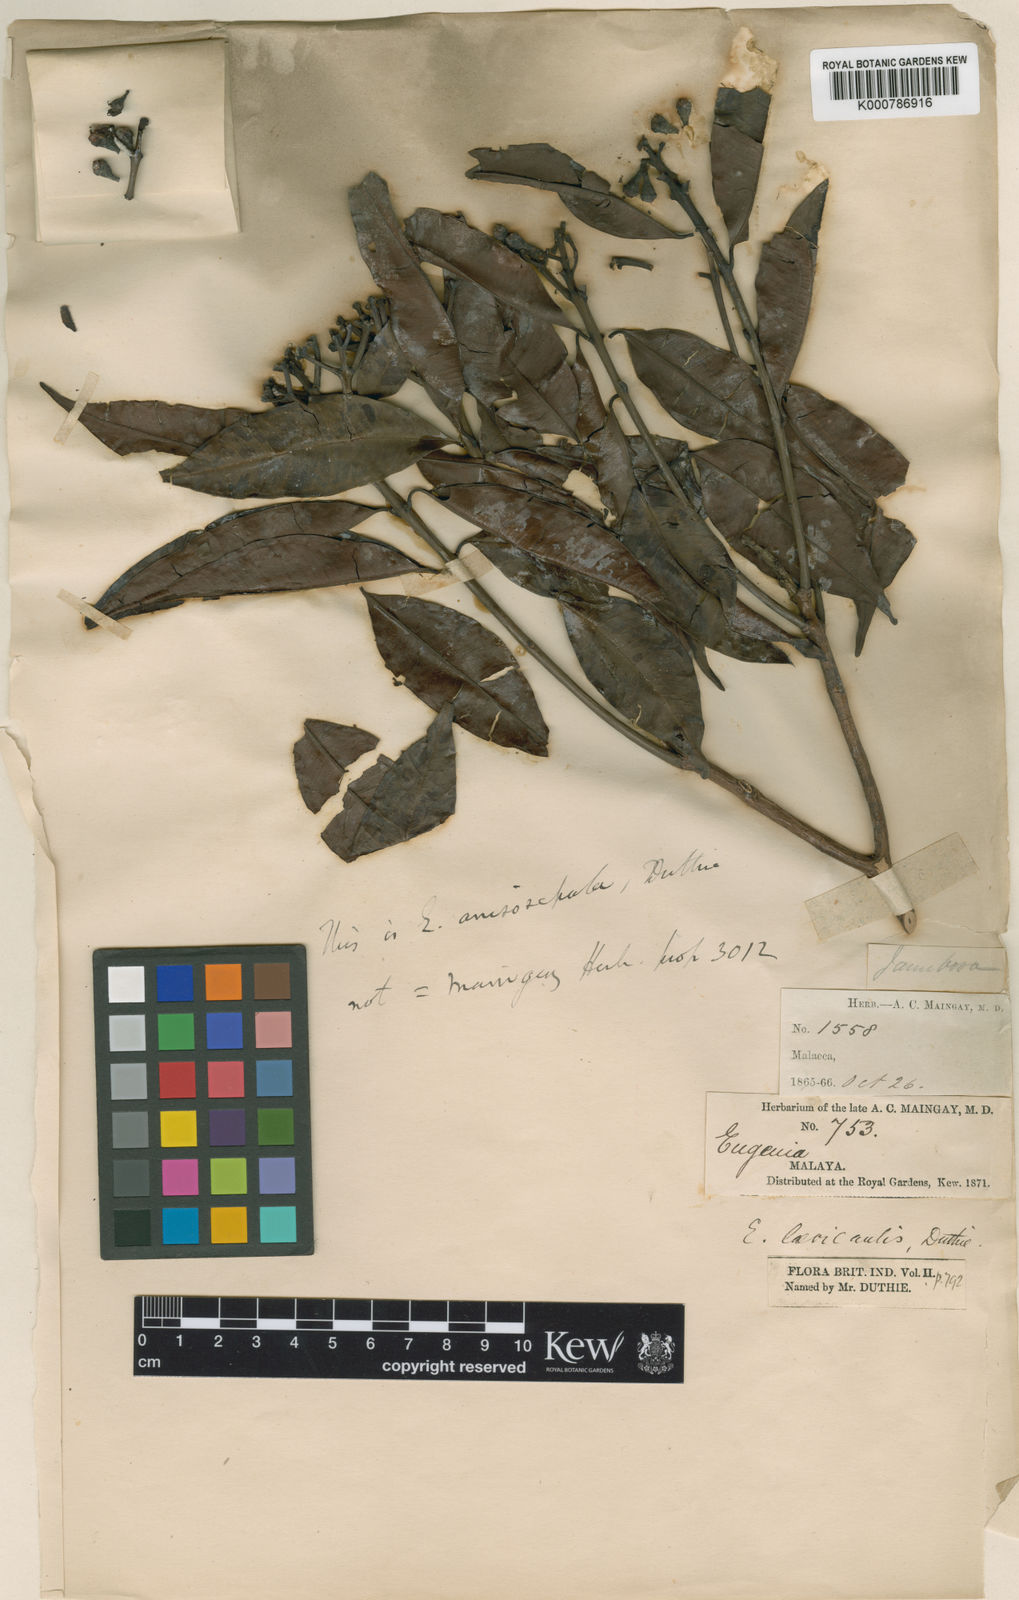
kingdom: Plantae
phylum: Tracheophyta
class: Magnoliopsida
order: Myrtales
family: Myrtaceae
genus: Syzygium
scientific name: Syzygium anisosepalum
